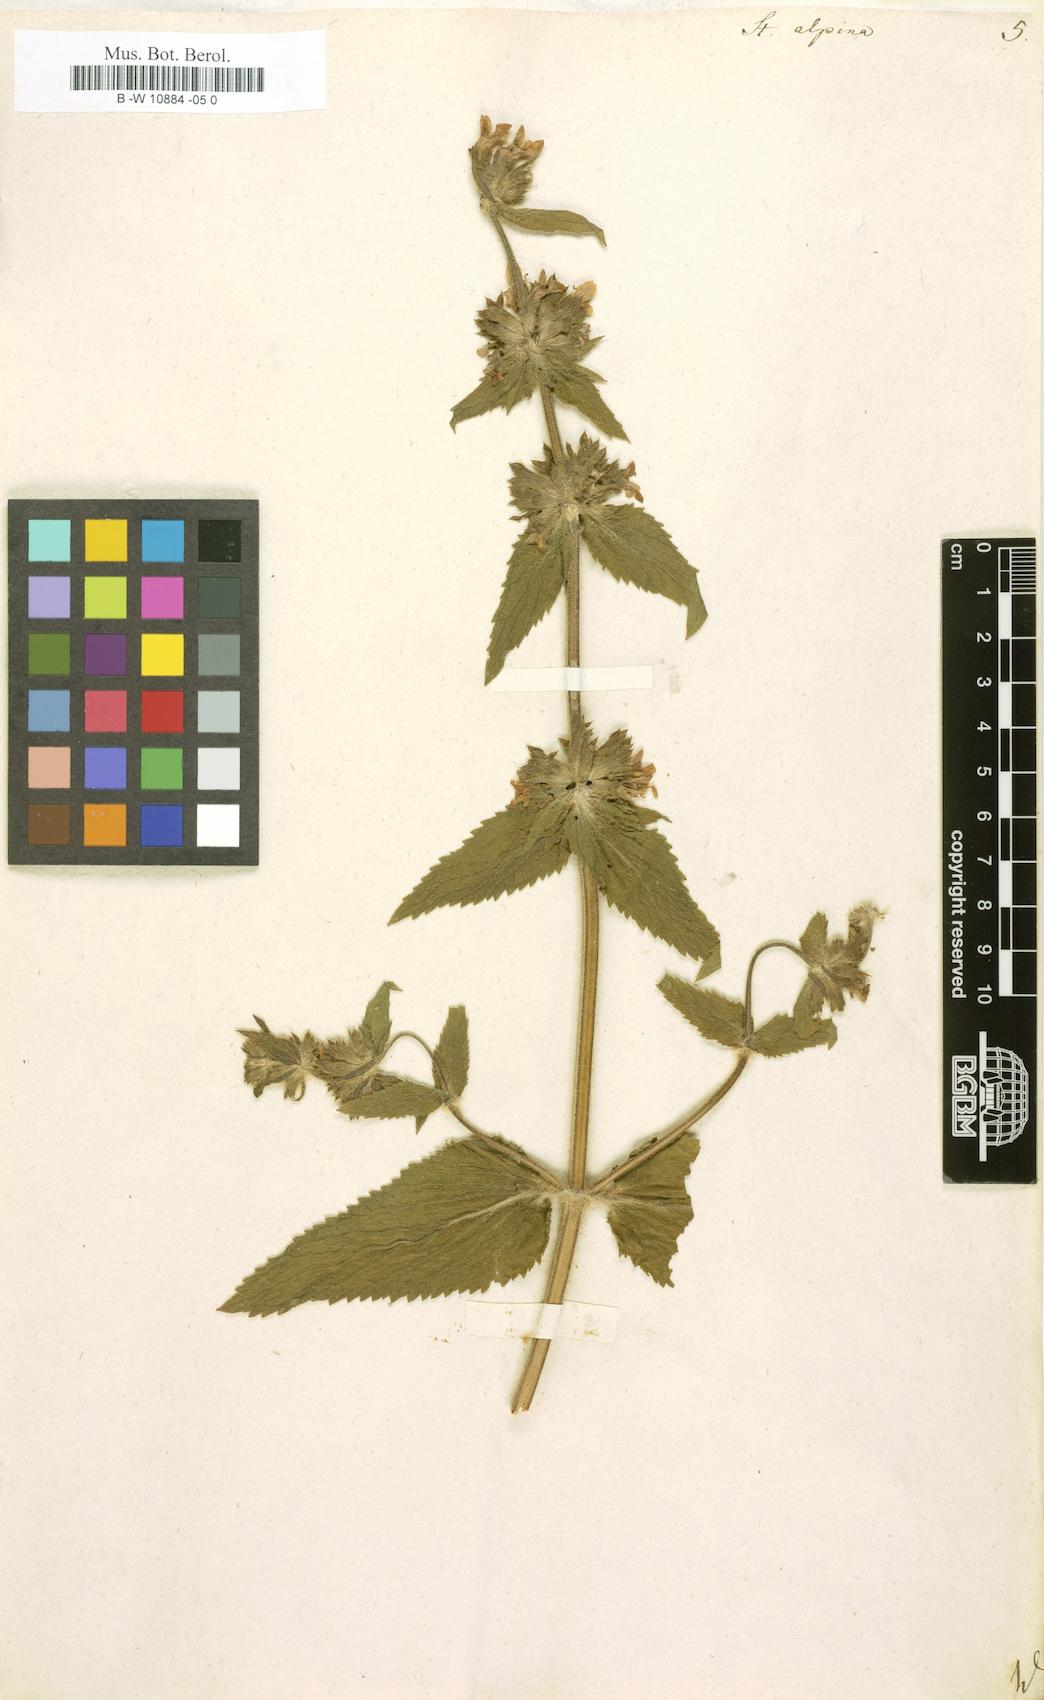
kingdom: Plantae
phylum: Tracheophyta
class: Magnoliopsida
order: Lamiales
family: Lamiaceae
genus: Stachys
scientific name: Stachys alpina
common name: Limestone woundwort
